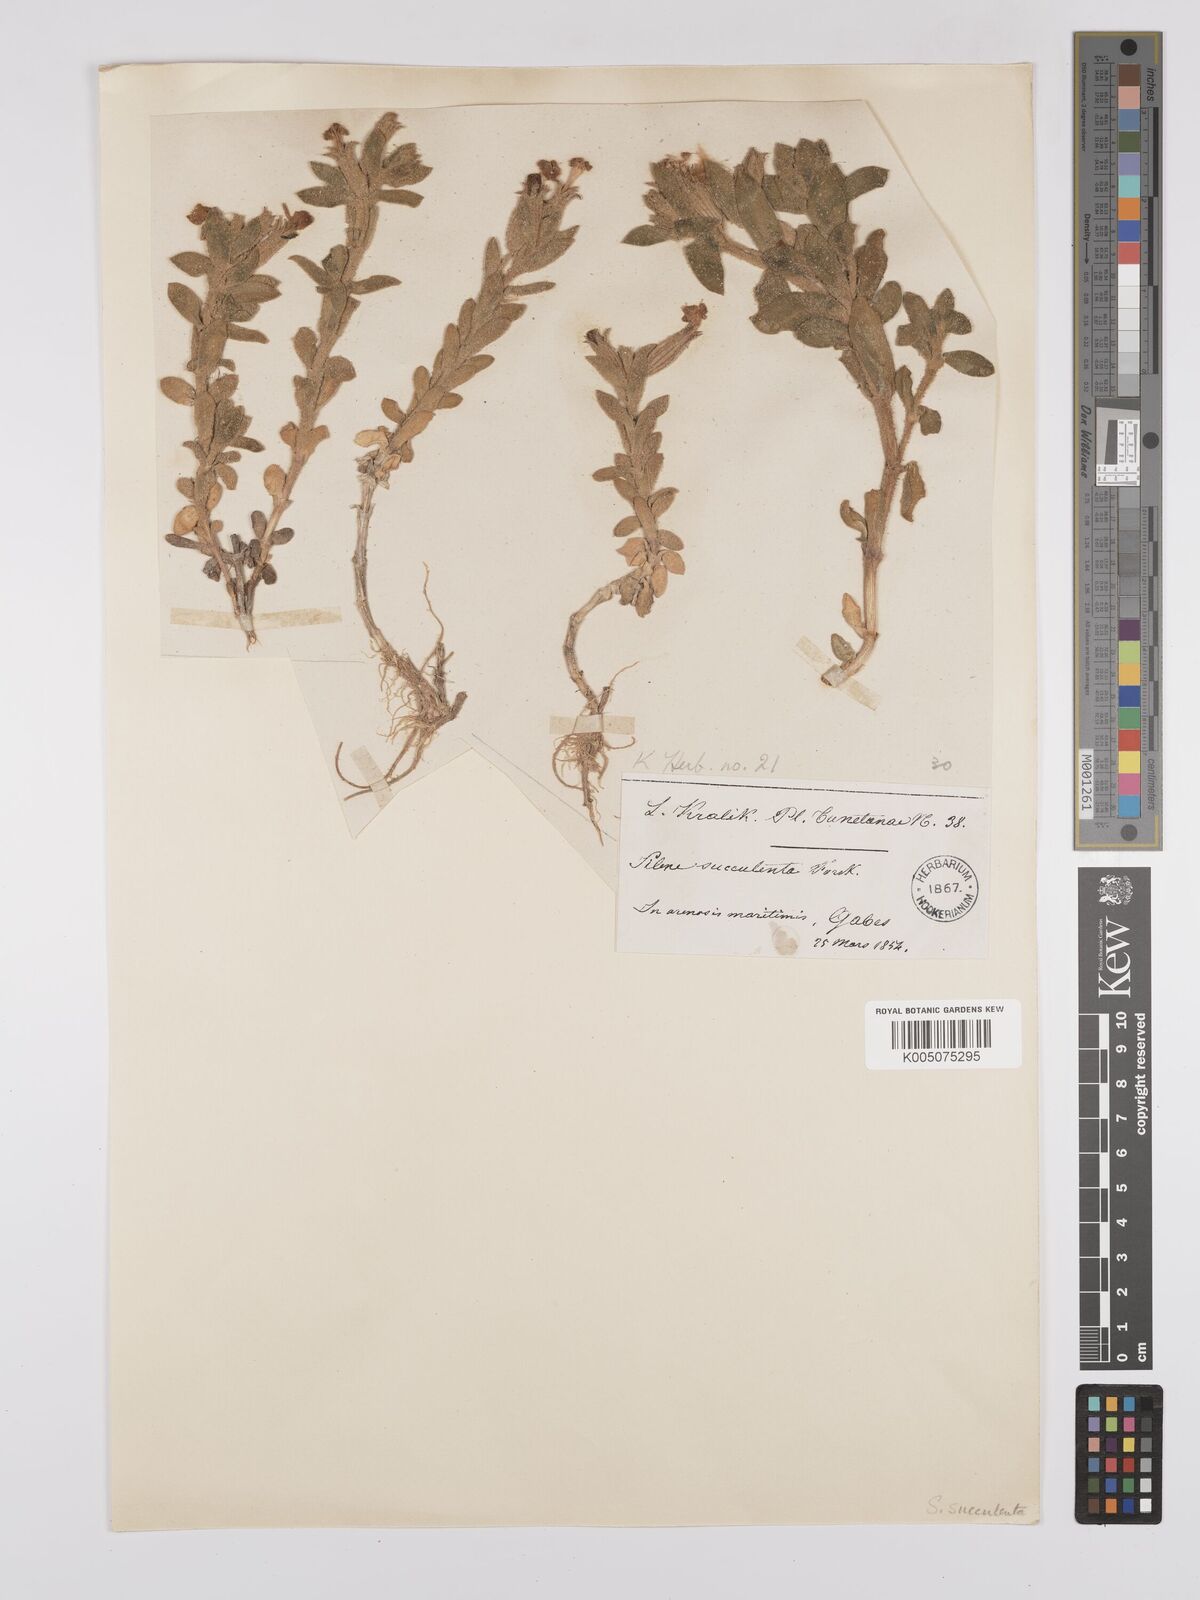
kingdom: Plantae
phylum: Tracheophyta
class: Magnoliopsida
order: Caryophyllales
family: Caryophyllaceae
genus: Silene
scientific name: Silene succulenta
